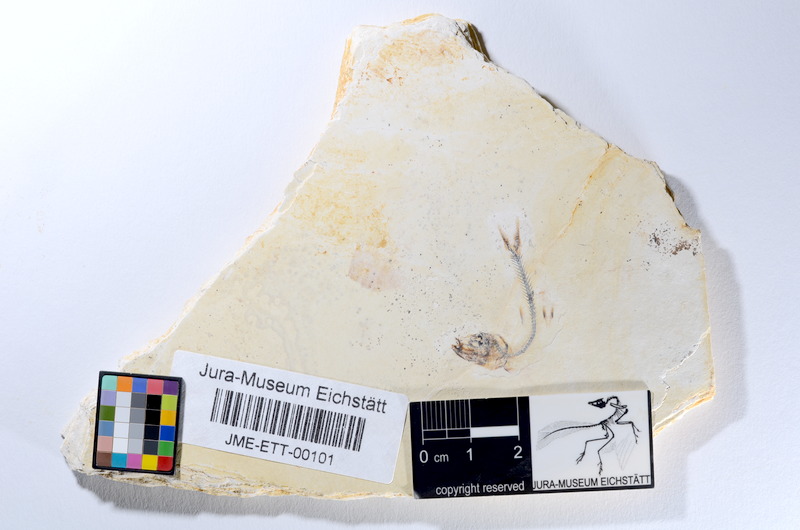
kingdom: Animalia
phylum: Chordata
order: Salmoniformes
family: Orthogonikleithridae
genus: Orthogonikleithrus
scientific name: Orthogonikleithrus hoelli
